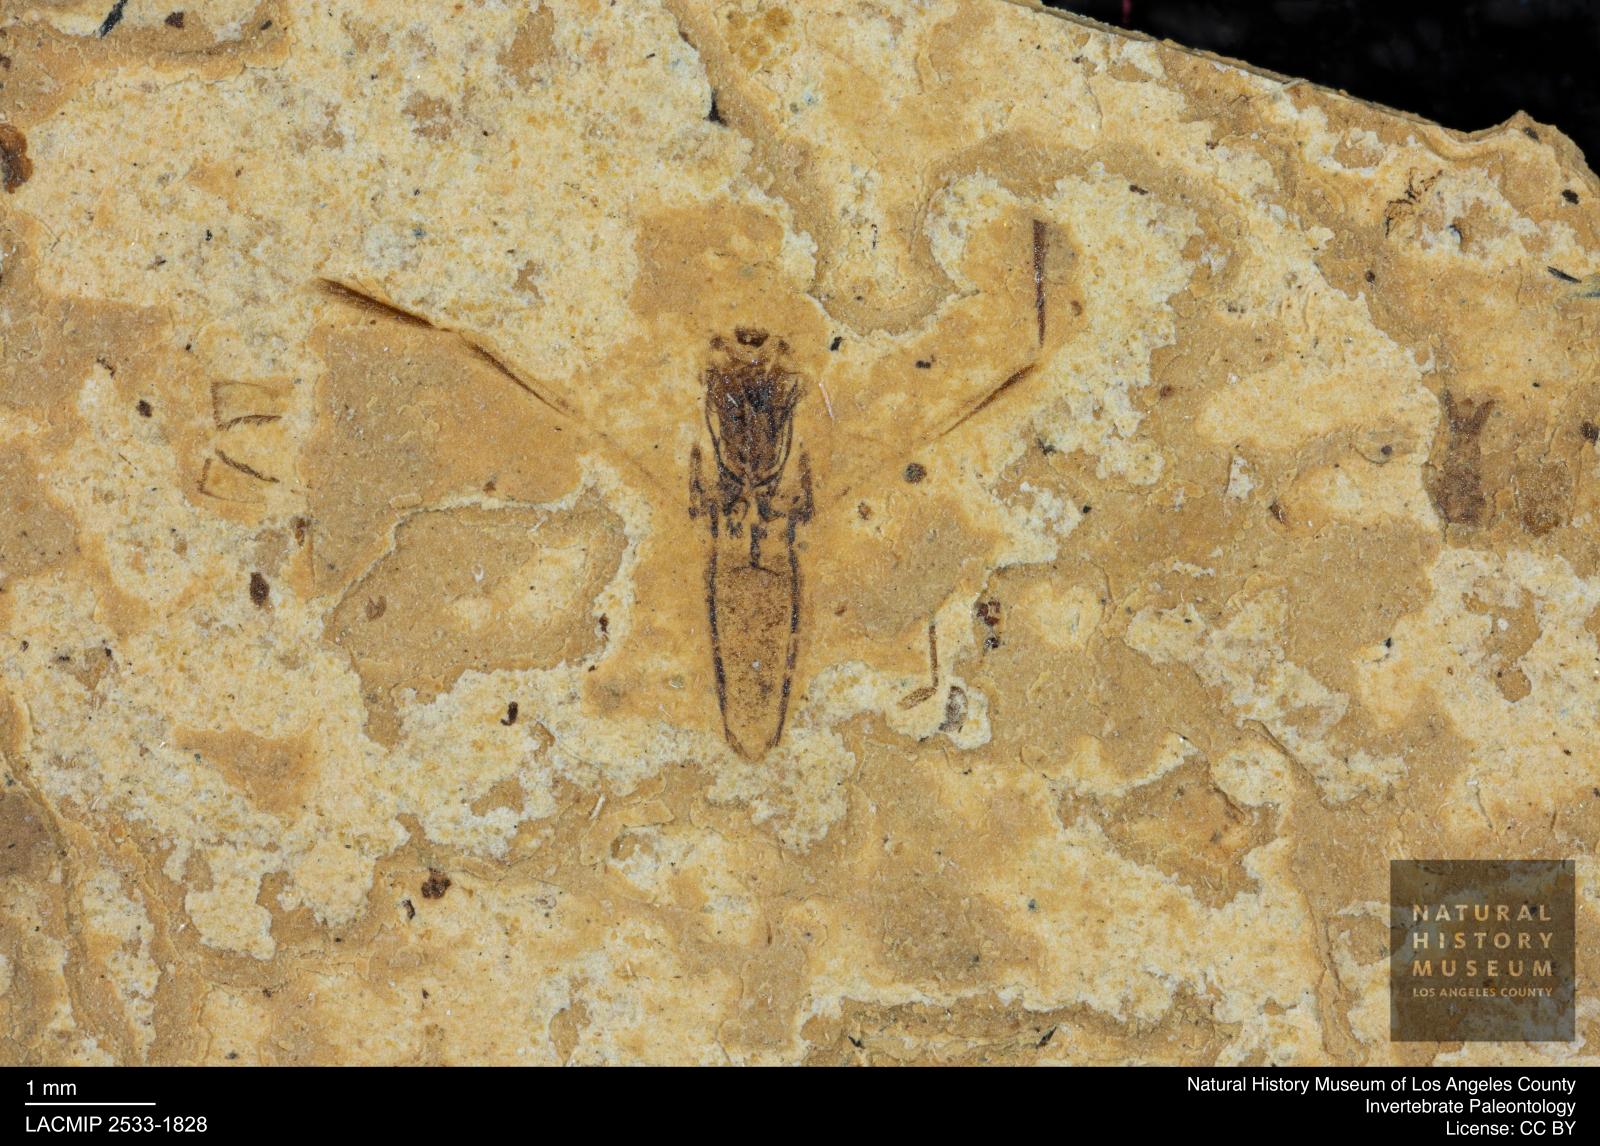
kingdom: Animalia
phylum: Arthropoda
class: Insecta
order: Hemiptera
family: Notonectidae
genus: Notonecta
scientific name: Notonecta
